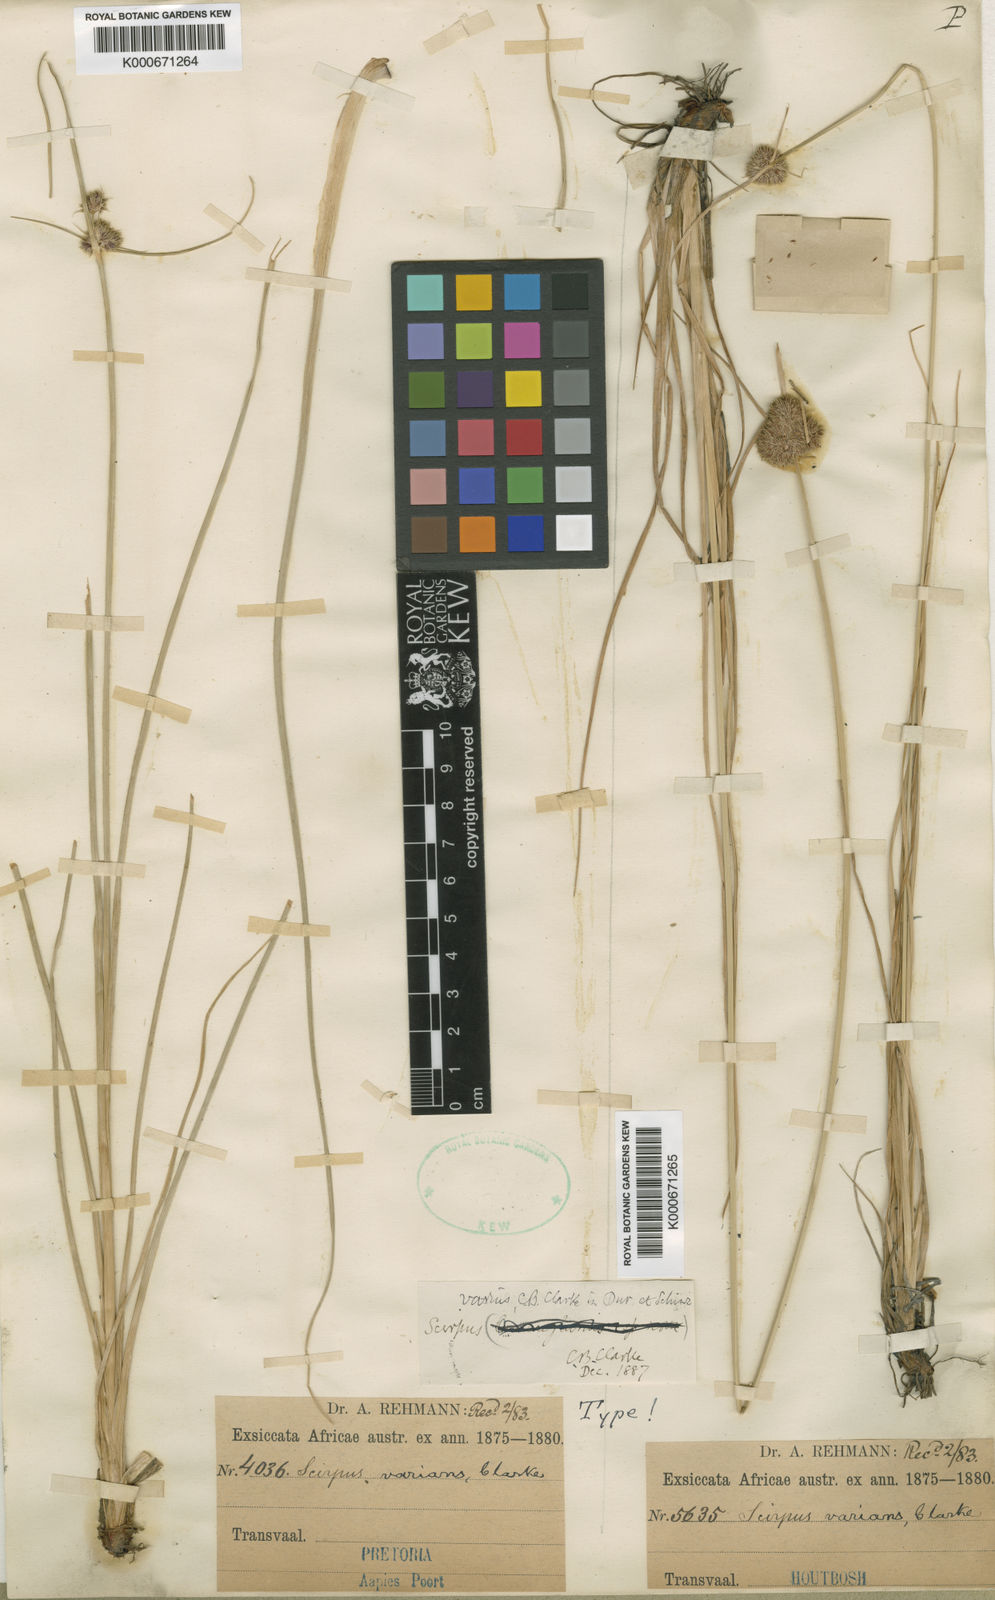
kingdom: Plantae
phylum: Tracheophyta
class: Liliopsida
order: Poales
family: Cyperaceae
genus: Scirpus
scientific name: Scirpus
